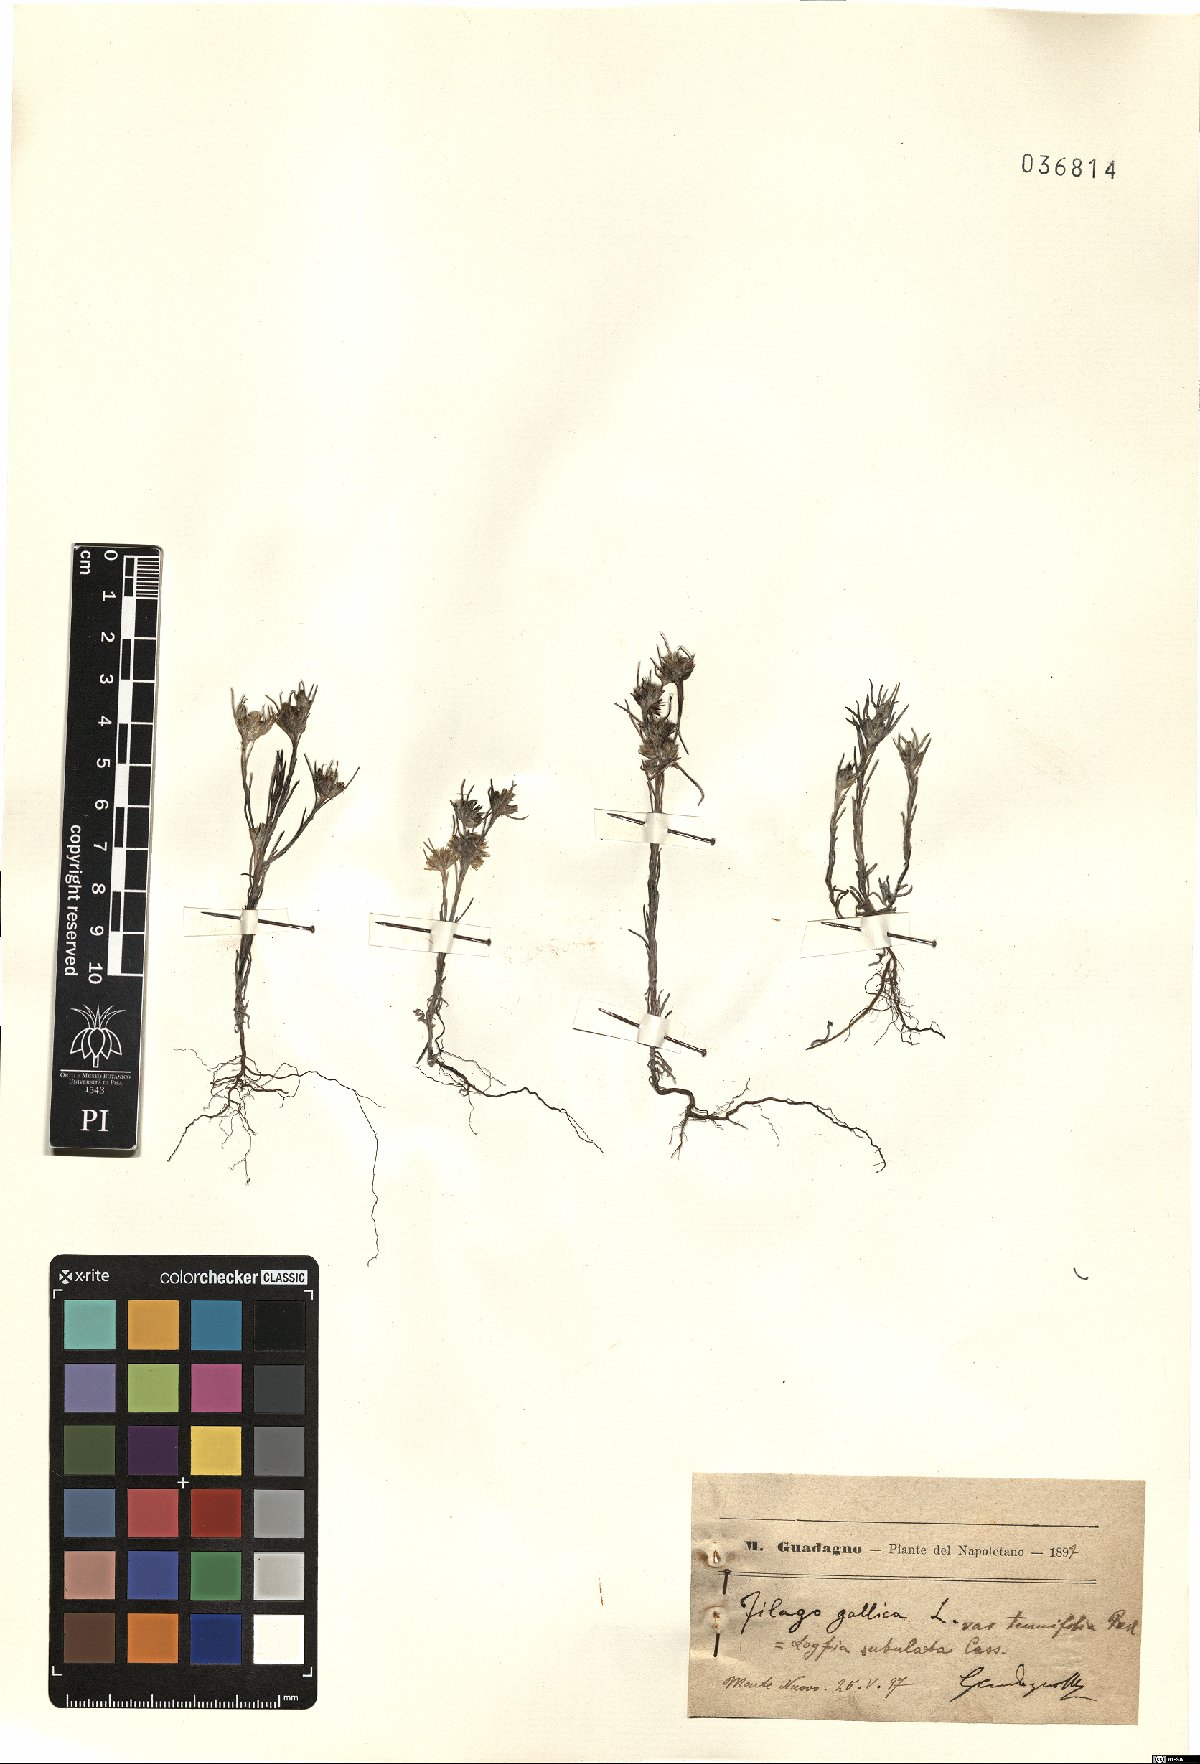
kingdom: Plantae
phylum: Tracheophyta
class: Magnoliopsida
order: Asterales
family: Asteraceae
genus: Logfia
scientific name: Logfia gallica
